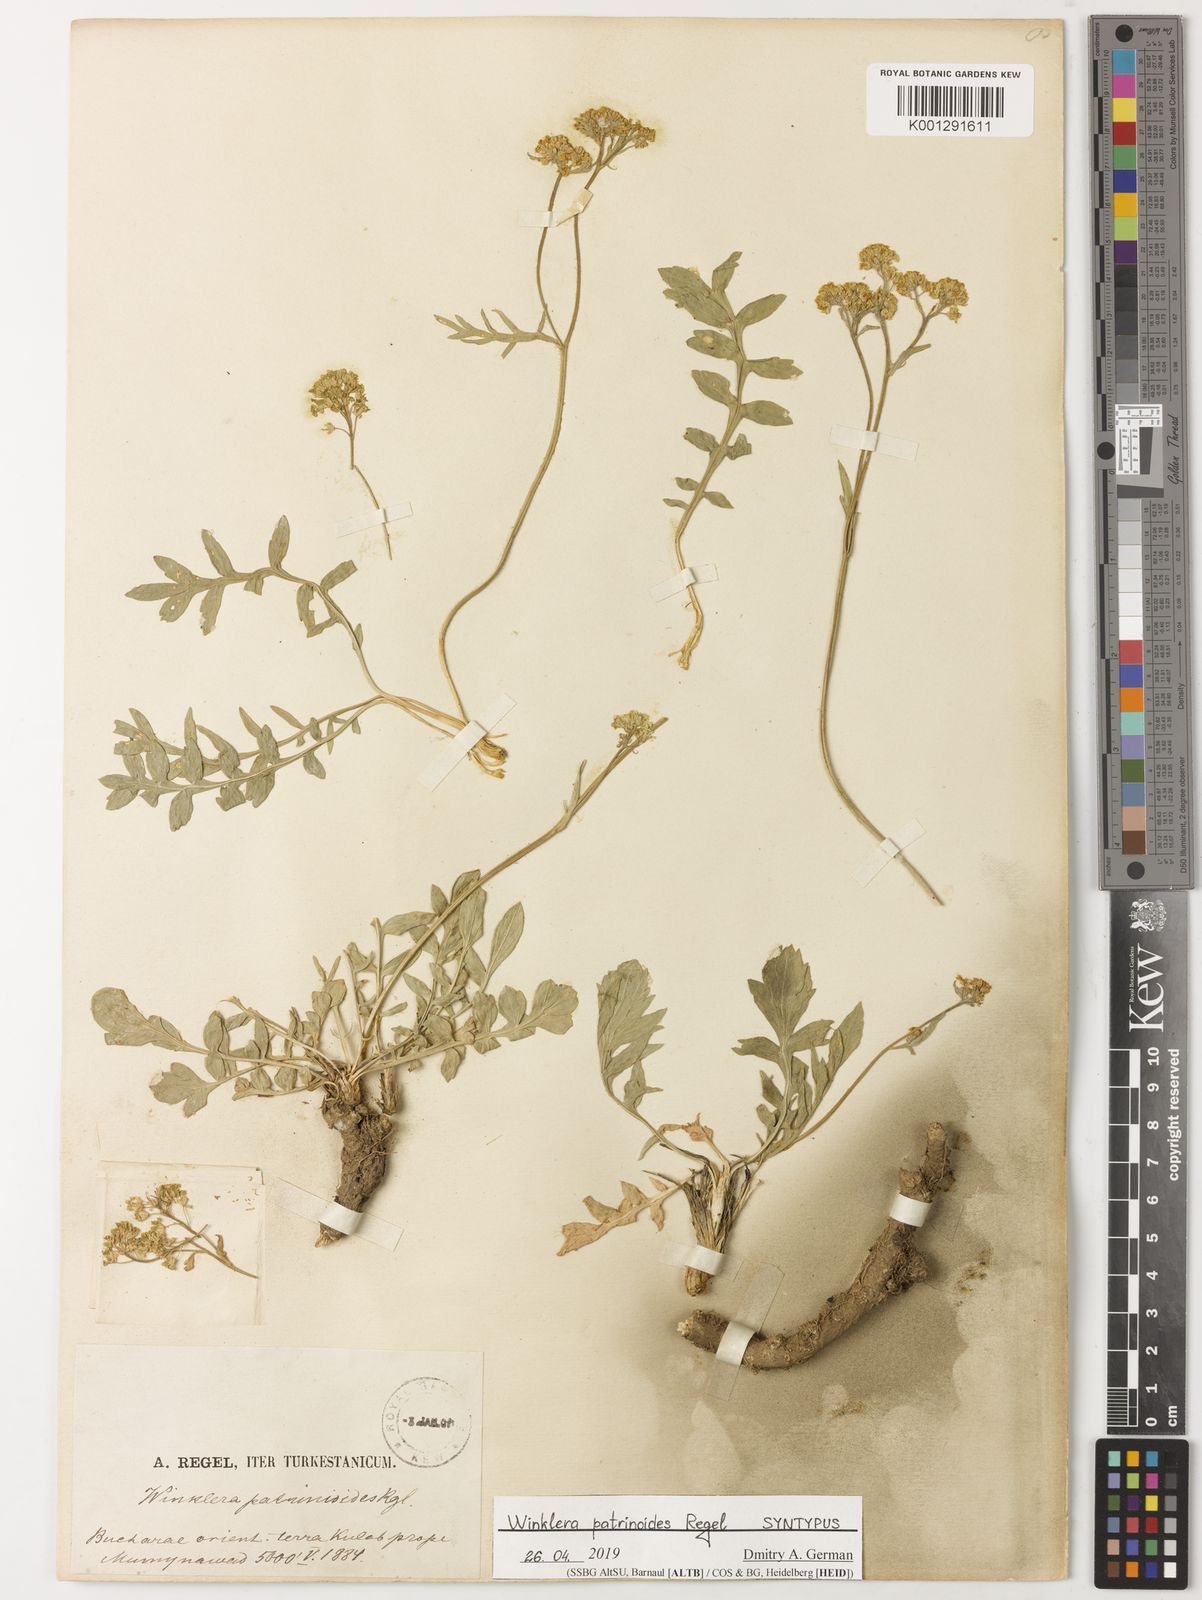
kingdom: Plantae
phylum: Tracheophyta
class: Magnoliopsida
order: Brassicales
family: Brassicaceae
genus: Lepidium
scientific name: Lepidium
